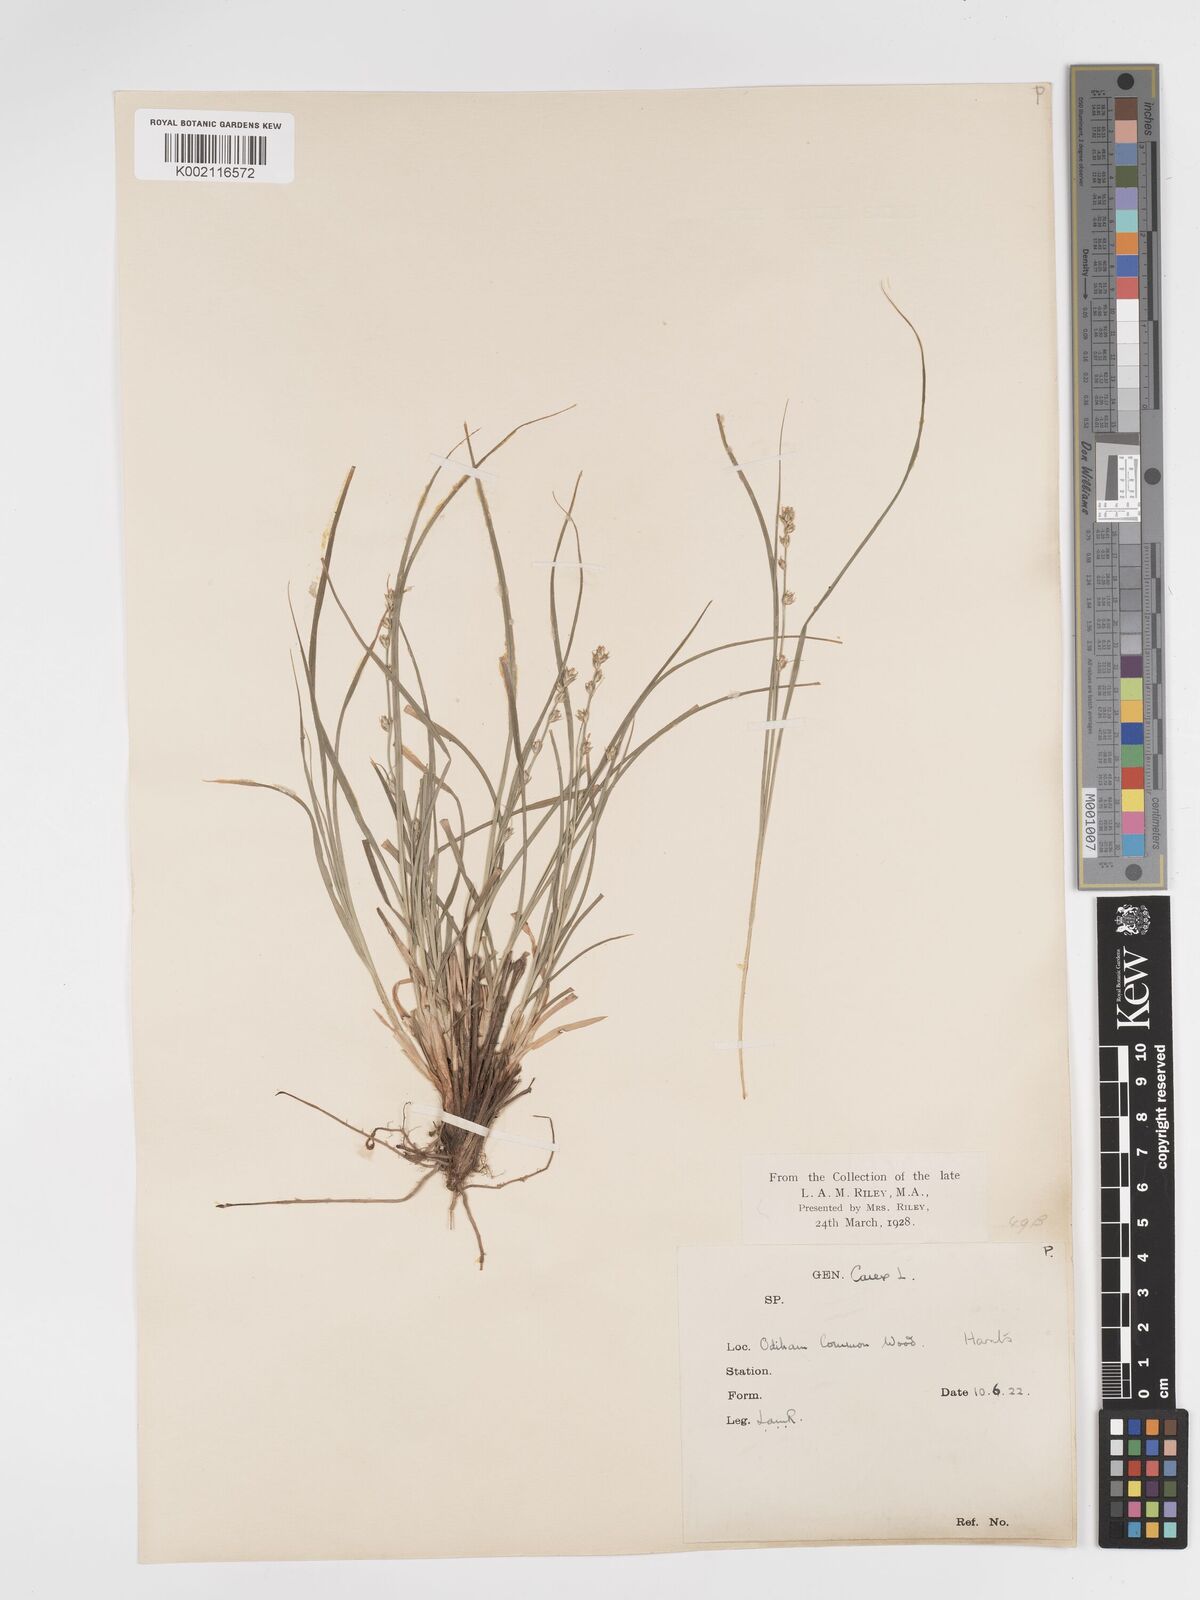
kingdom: Plantae
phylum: Tracheophyta
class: Liliopsida
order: Poales
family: Cyperaceae
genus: Carex
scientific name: Carex divulsa
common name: Grassland sedge
